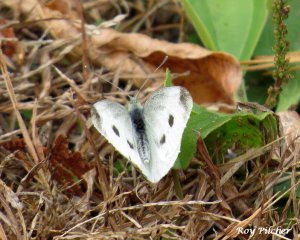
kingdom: Animalia
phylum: Arthropoda
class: Insecta
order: Lepidoptera
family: Pieridae
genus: Pieris
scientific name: Pieris rapae
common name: Cabbage White
